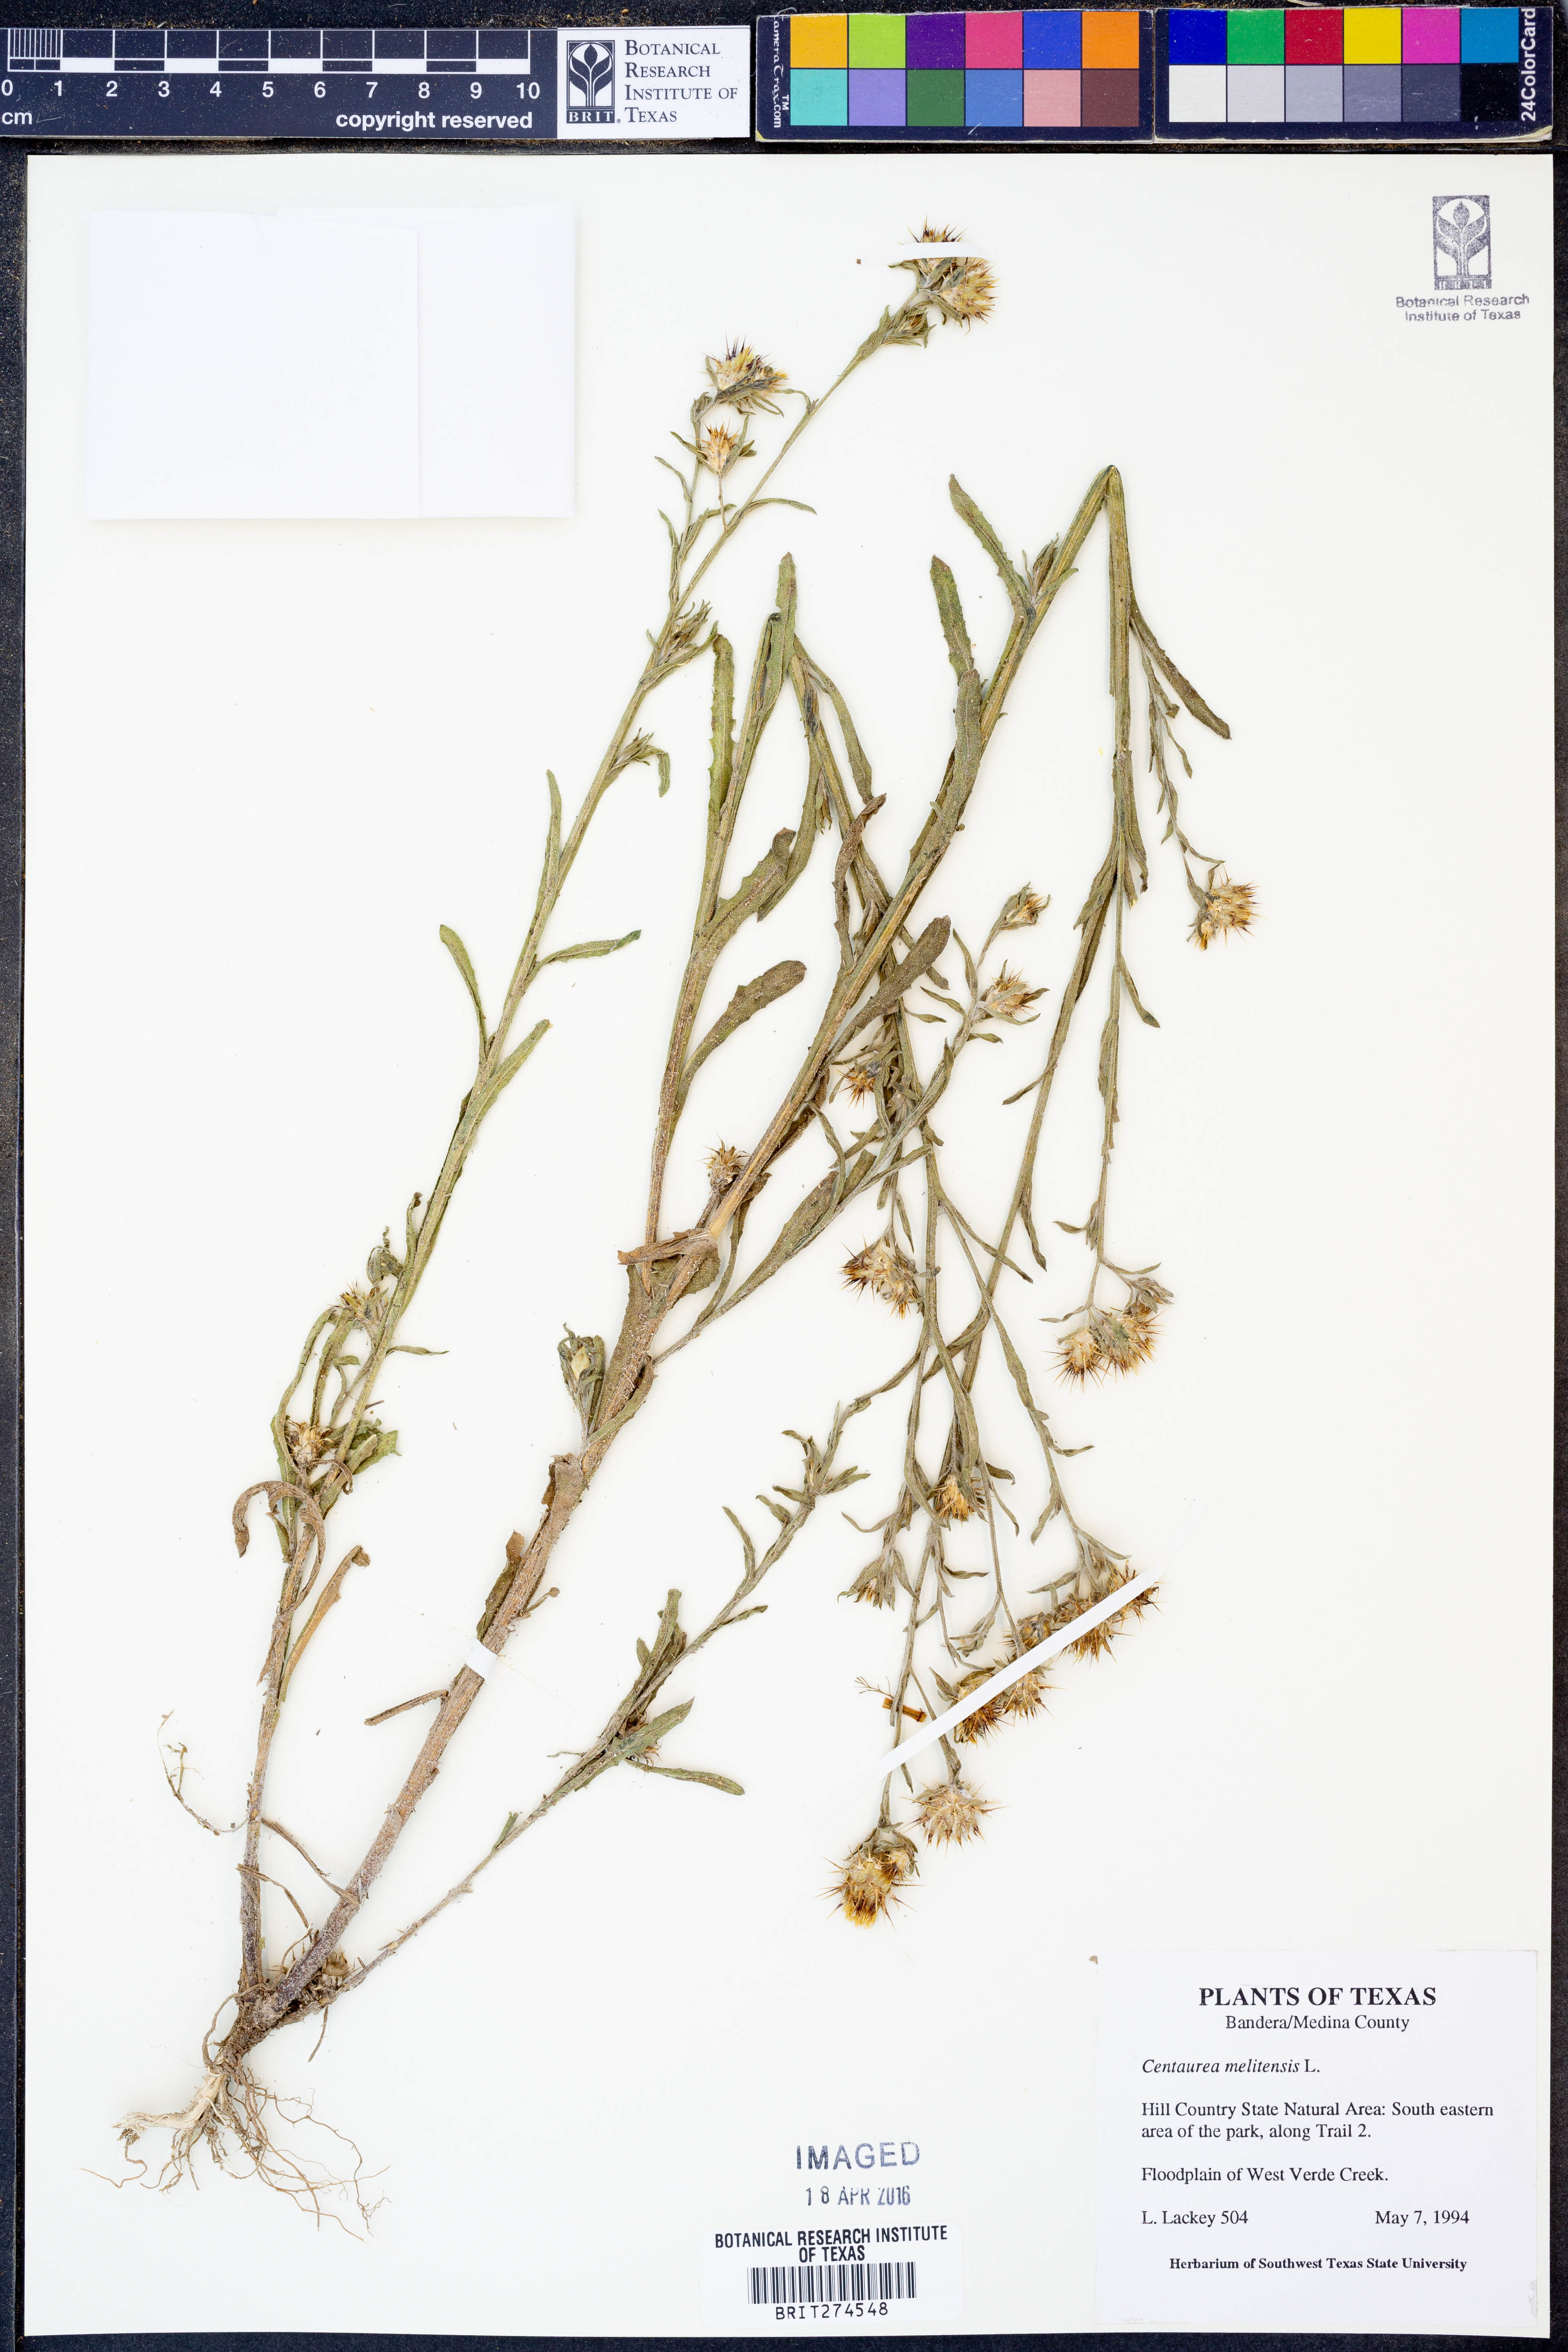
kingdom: Plantae
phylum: Tracheophyta
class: Magnoliopsida
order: Asterales
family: Asteraceae
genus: Centaurea
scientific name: Centaurea melitensis
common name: Maltese star-thistle
